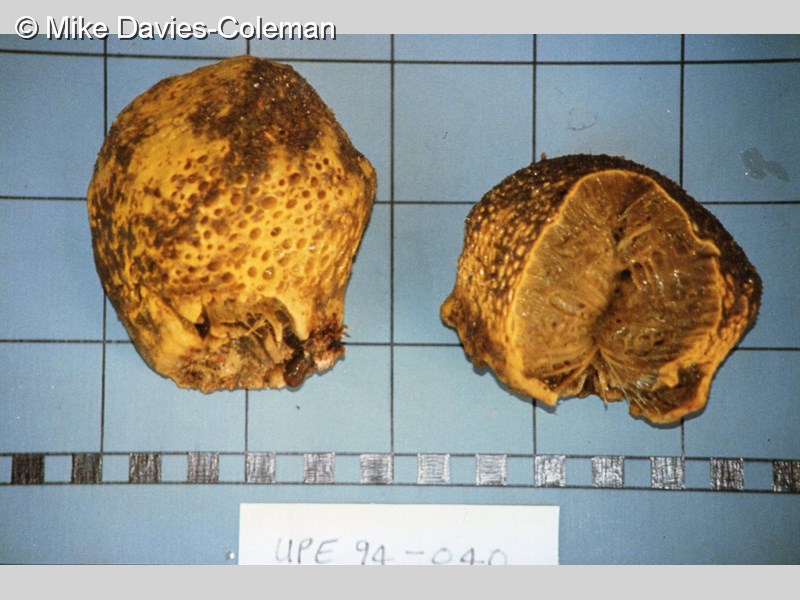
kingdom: Animalia
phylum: Porifera
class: Demospongiae
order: Tetractinellida
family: Tetillidae
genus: Cinachyrella
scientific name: Cinachyrella
